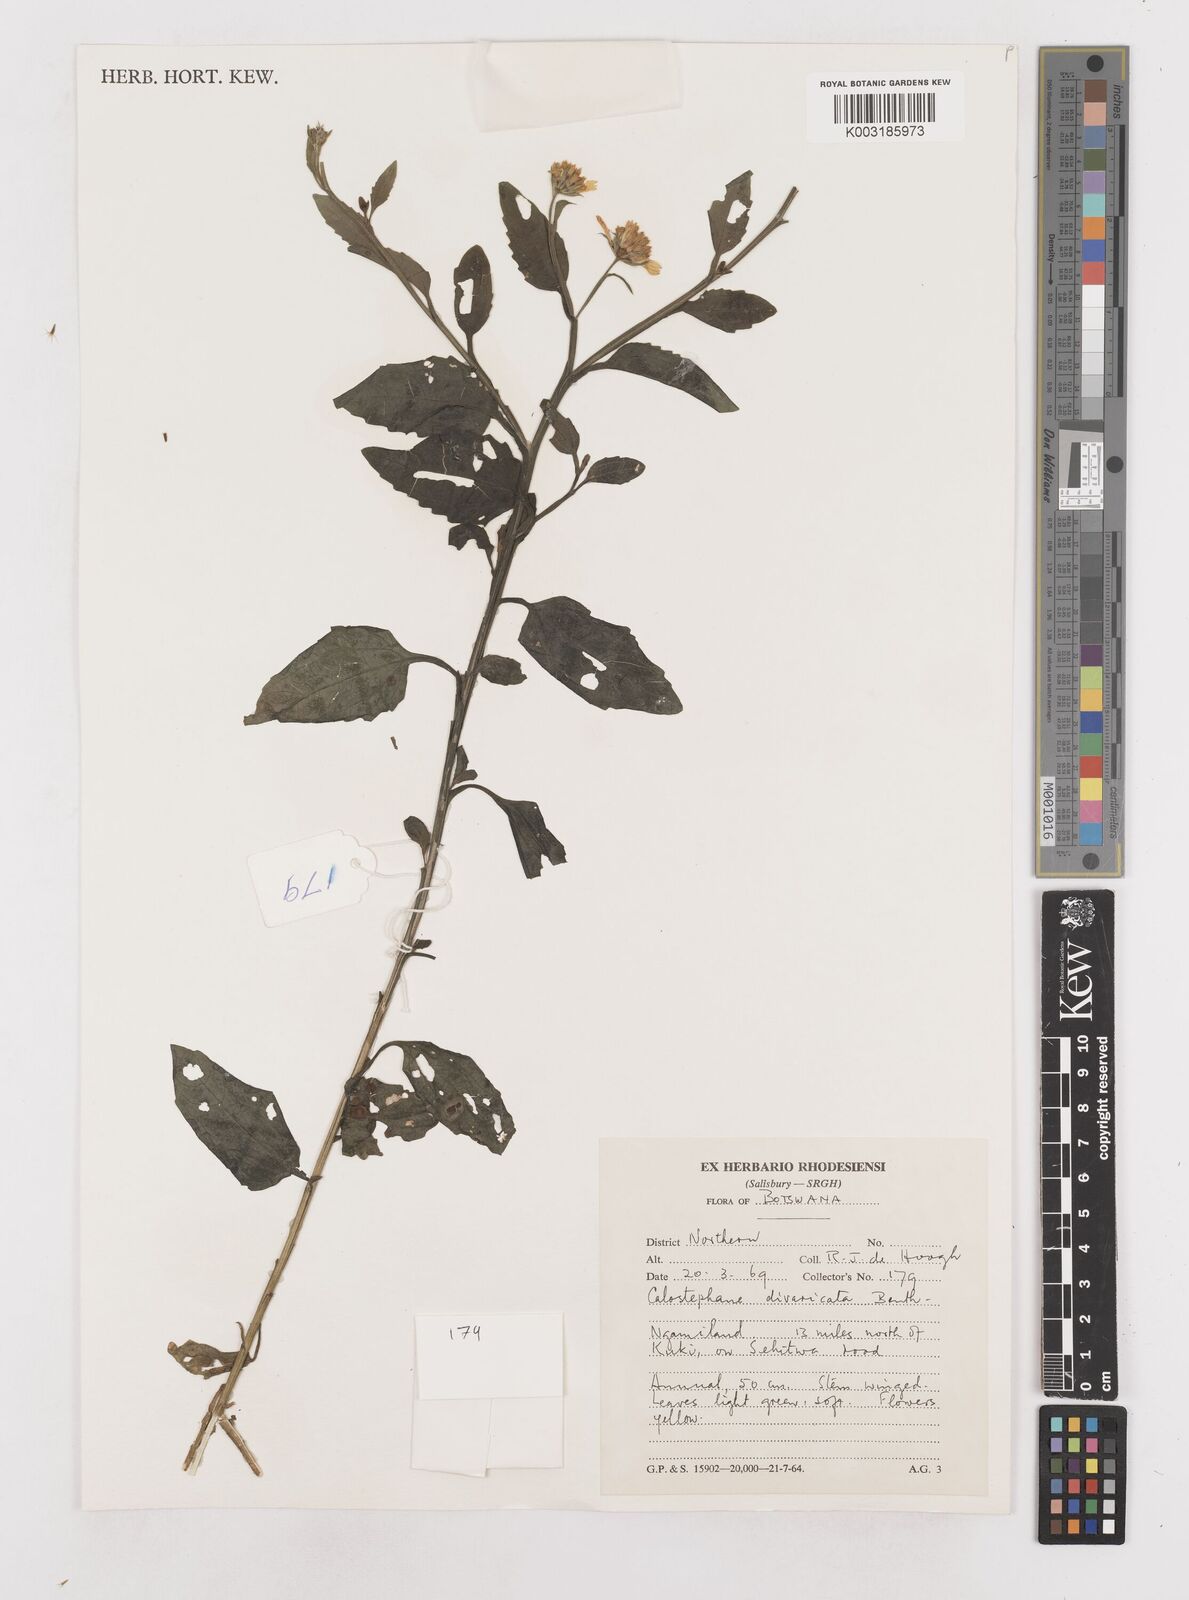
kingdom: Plantae
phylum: Tracheophyta
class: Magnoliopsida
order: Asterales
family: Asteraceae
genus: Calostephane
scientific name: Calostephane divaricata
